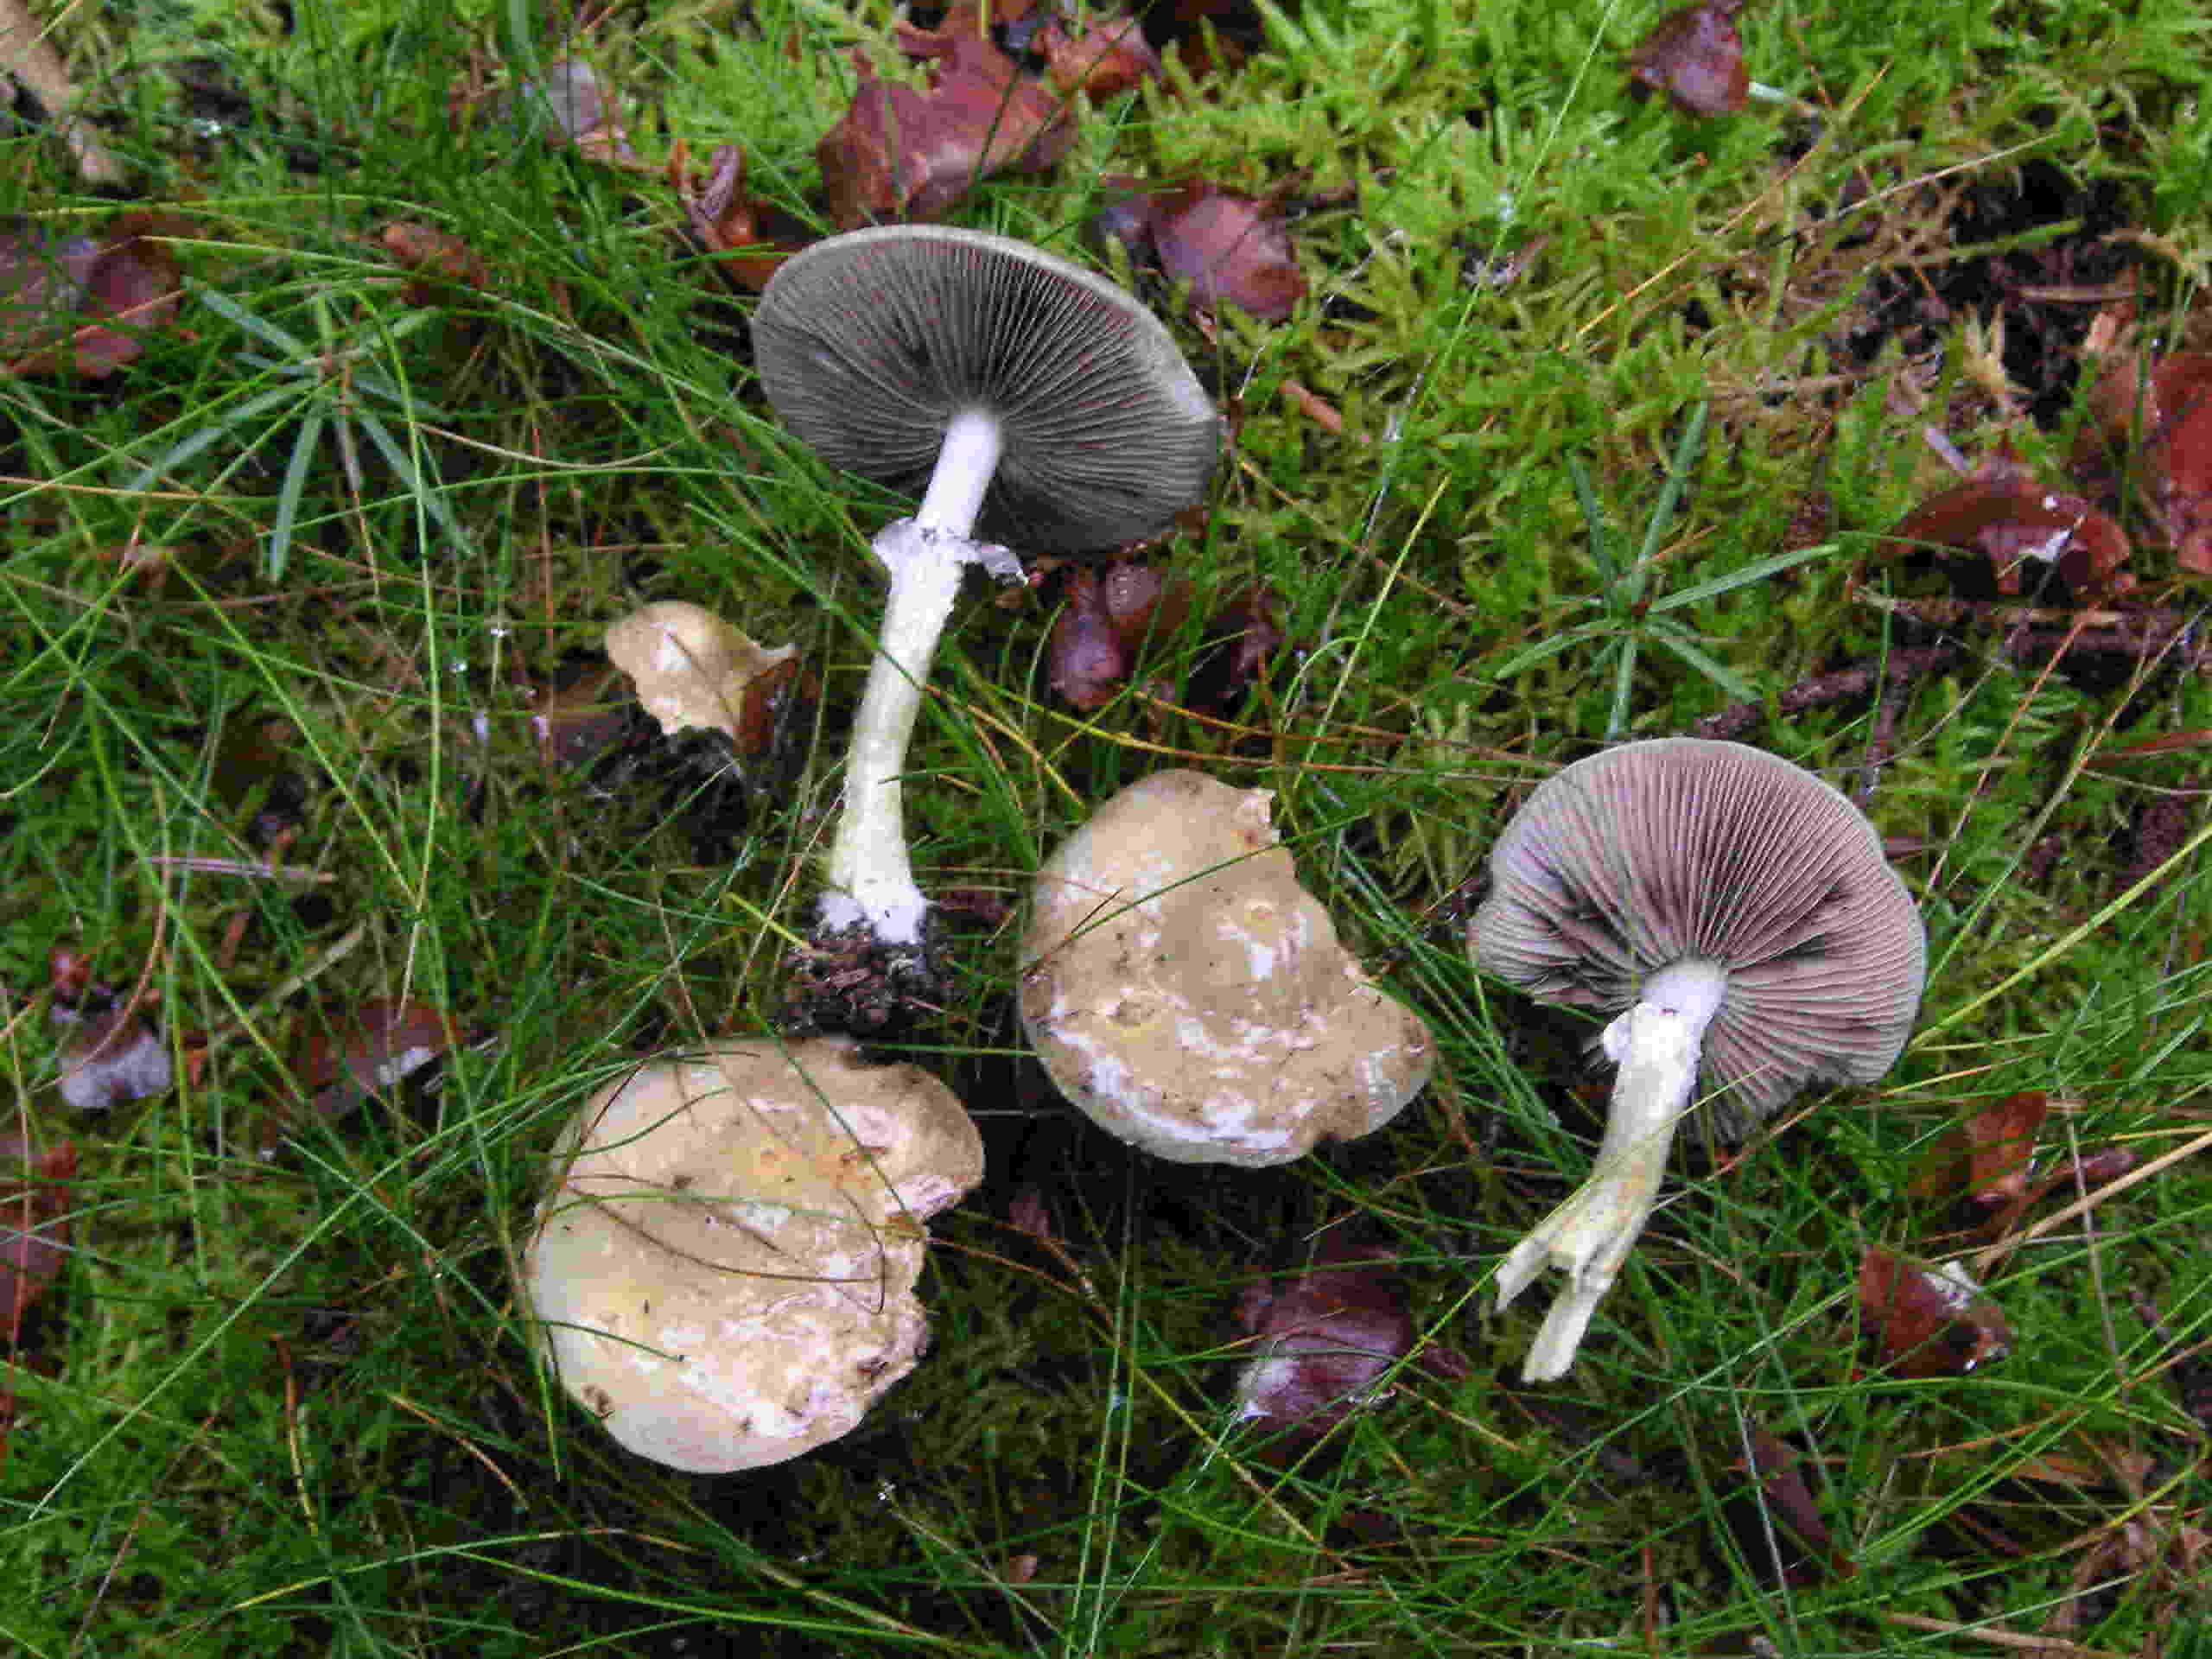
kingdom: Fungi
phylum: Basidiomycota
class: Agaricomycetes
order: Agaricales
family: Strophariaceae
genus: Stropharia
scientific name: Stropharia aeruginosa
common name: spanskgrøn bredblad
